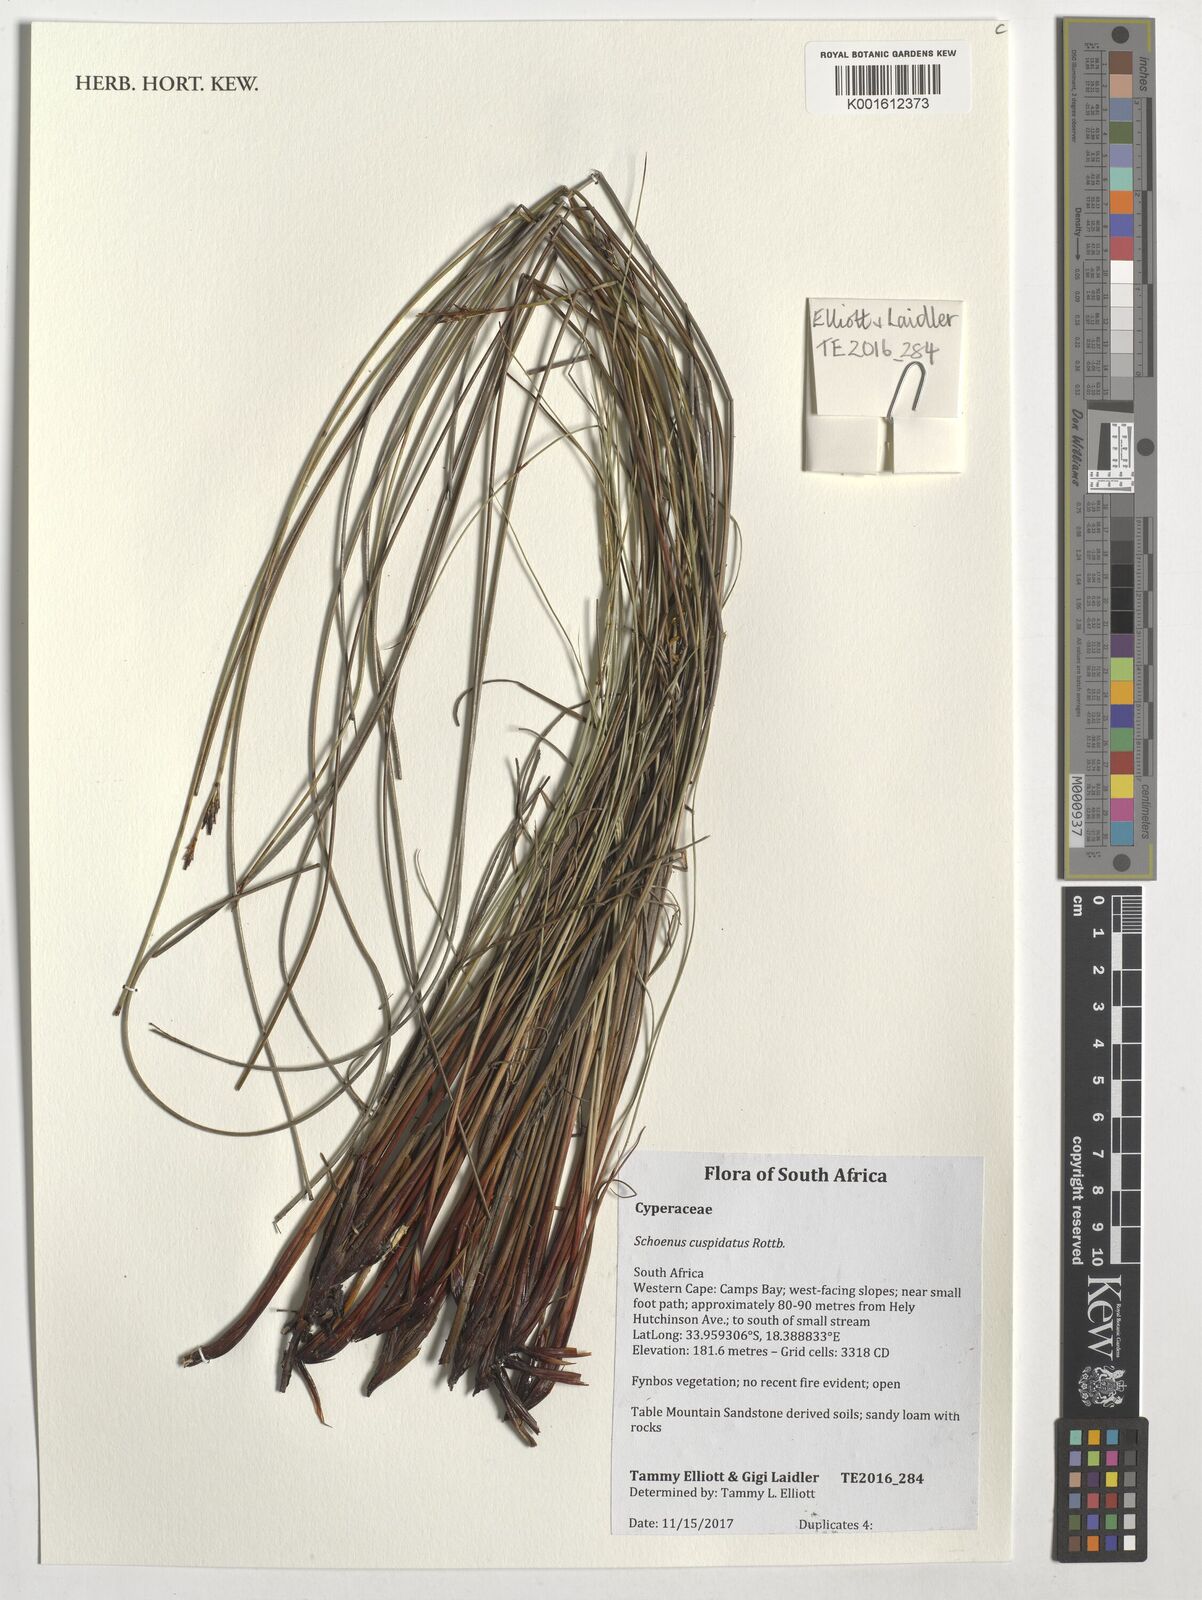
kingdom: Plantae
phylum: Tracheophyta
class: Liliopsida
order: Poales
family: Cyperaceae
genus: Schoenus
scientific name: Schoenus cuspidatus
